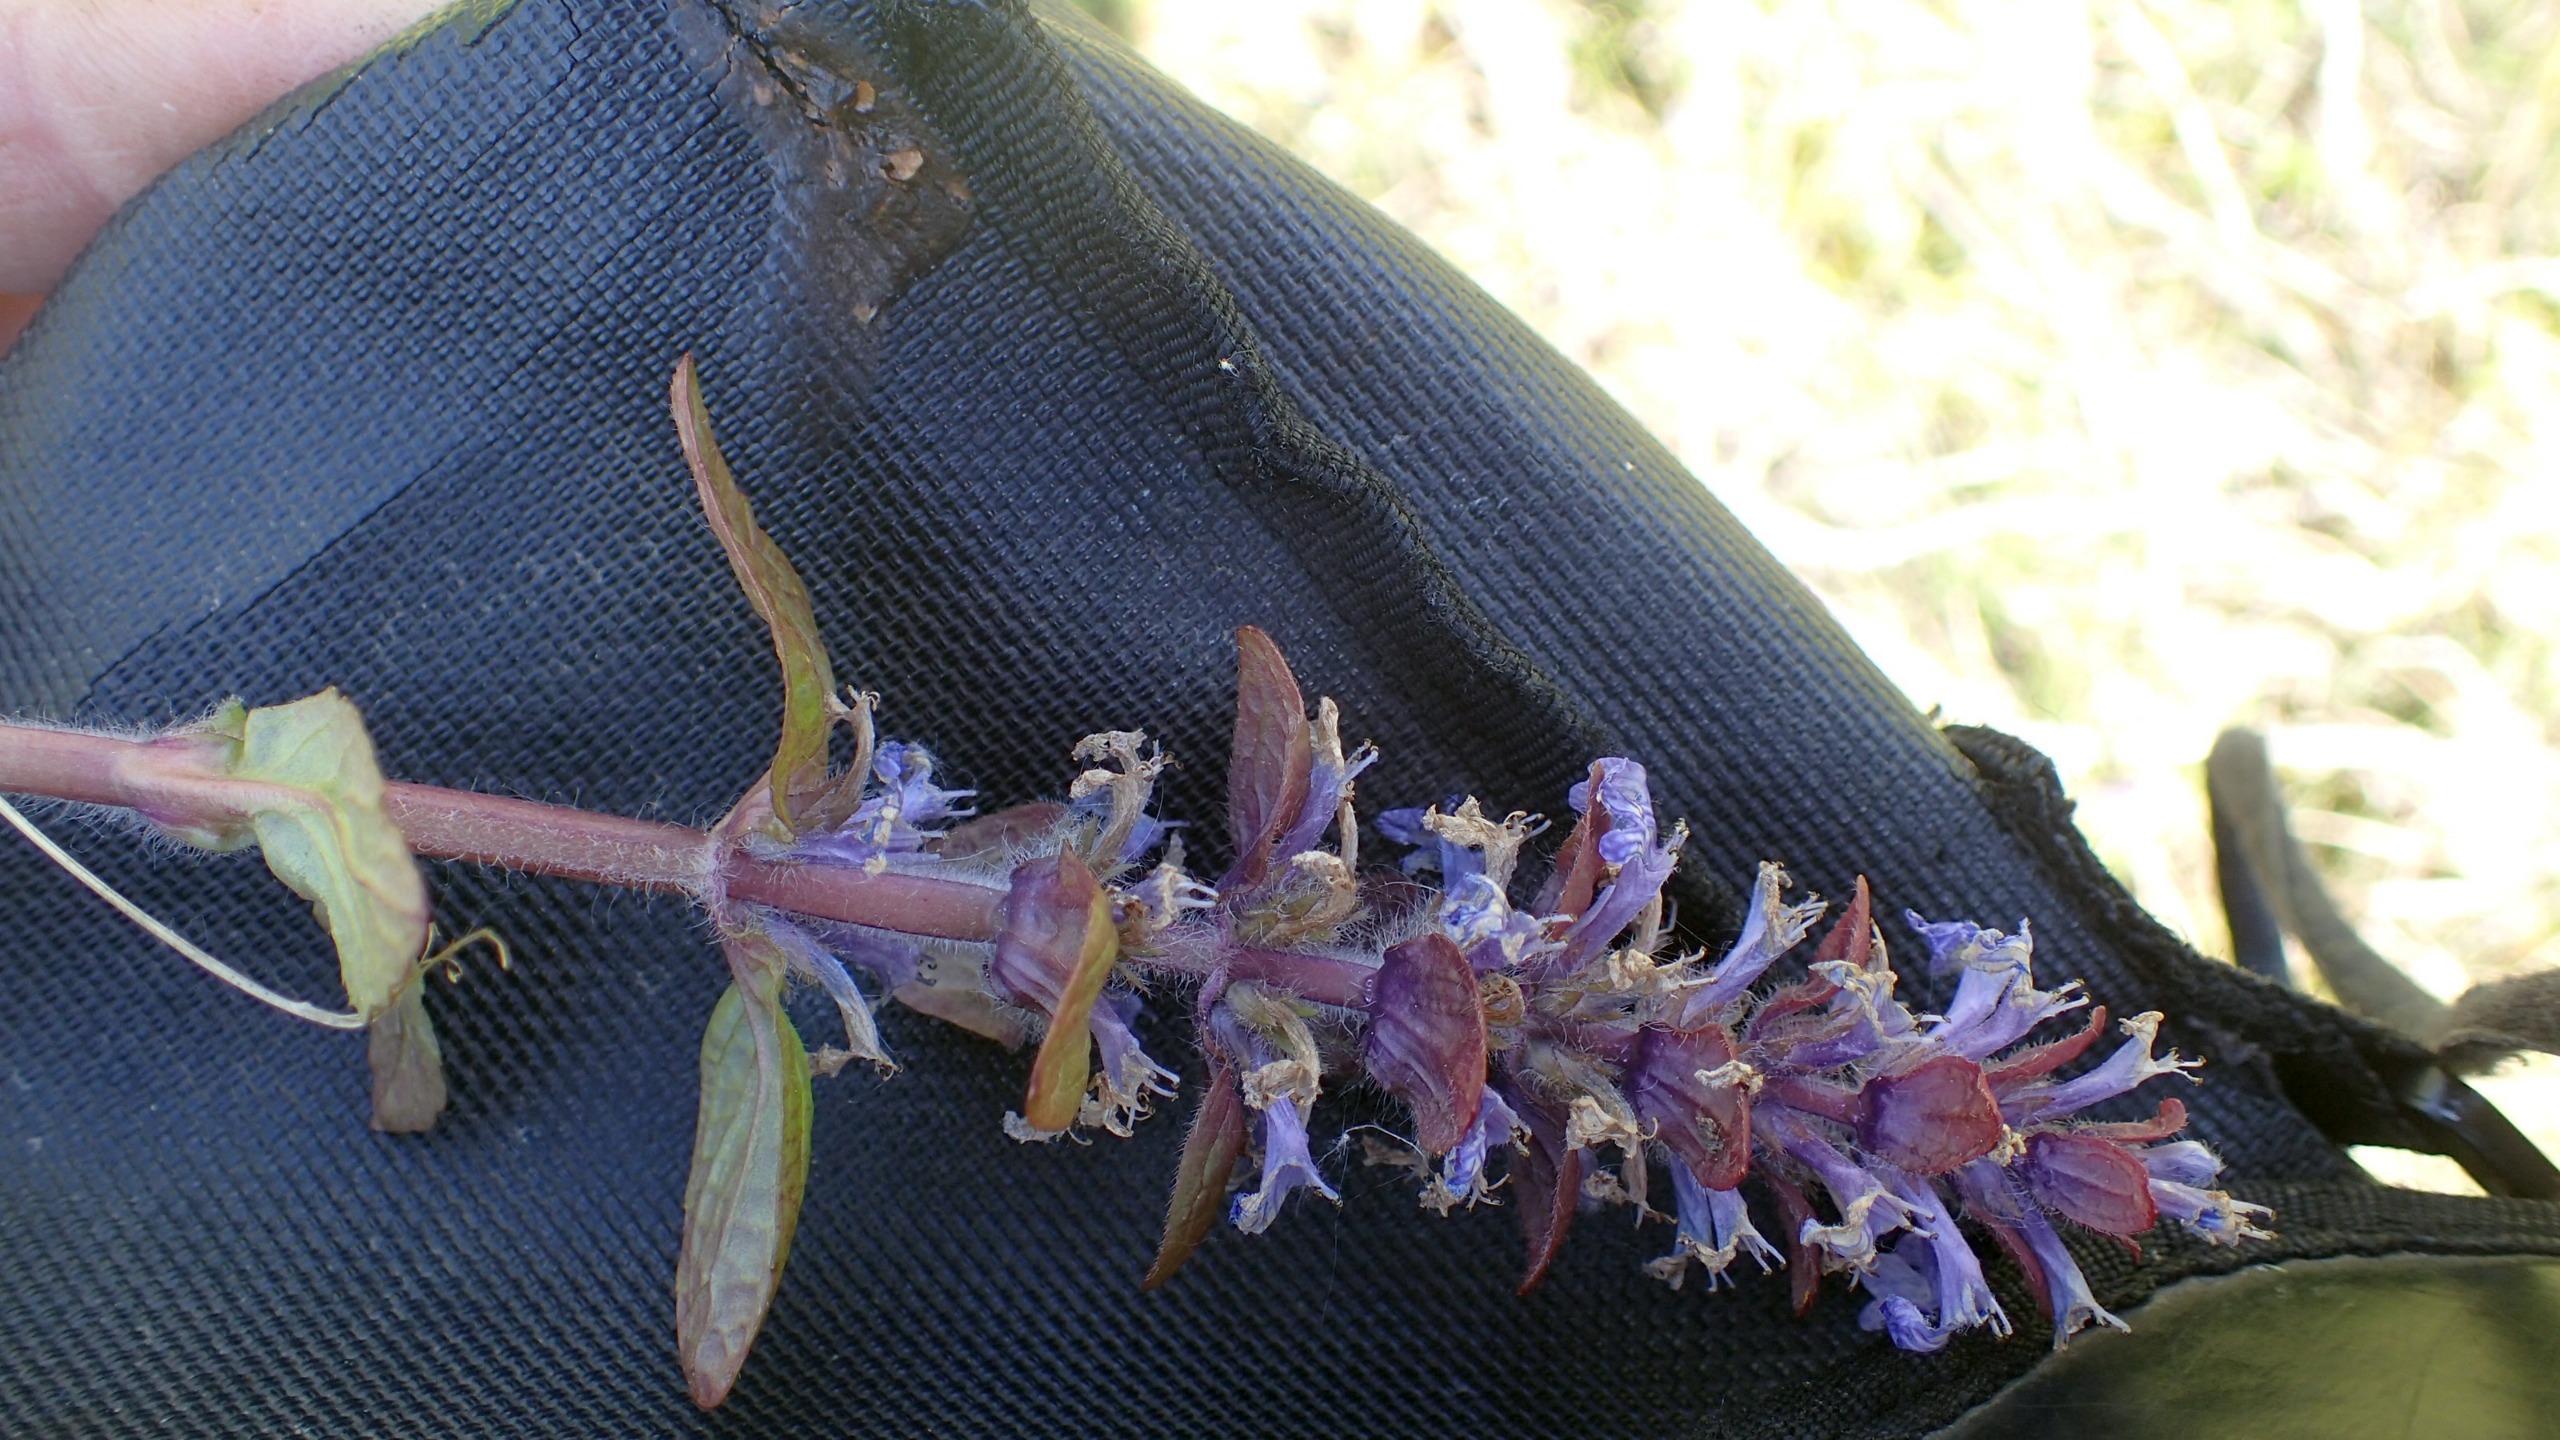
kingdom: Plantae
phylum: Tracheophyta
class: Magnoliopsida
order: Lamiales
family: Lamiaceae
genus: Ajuga
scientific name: Ajuga reptans
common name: Krybende læbeløs
